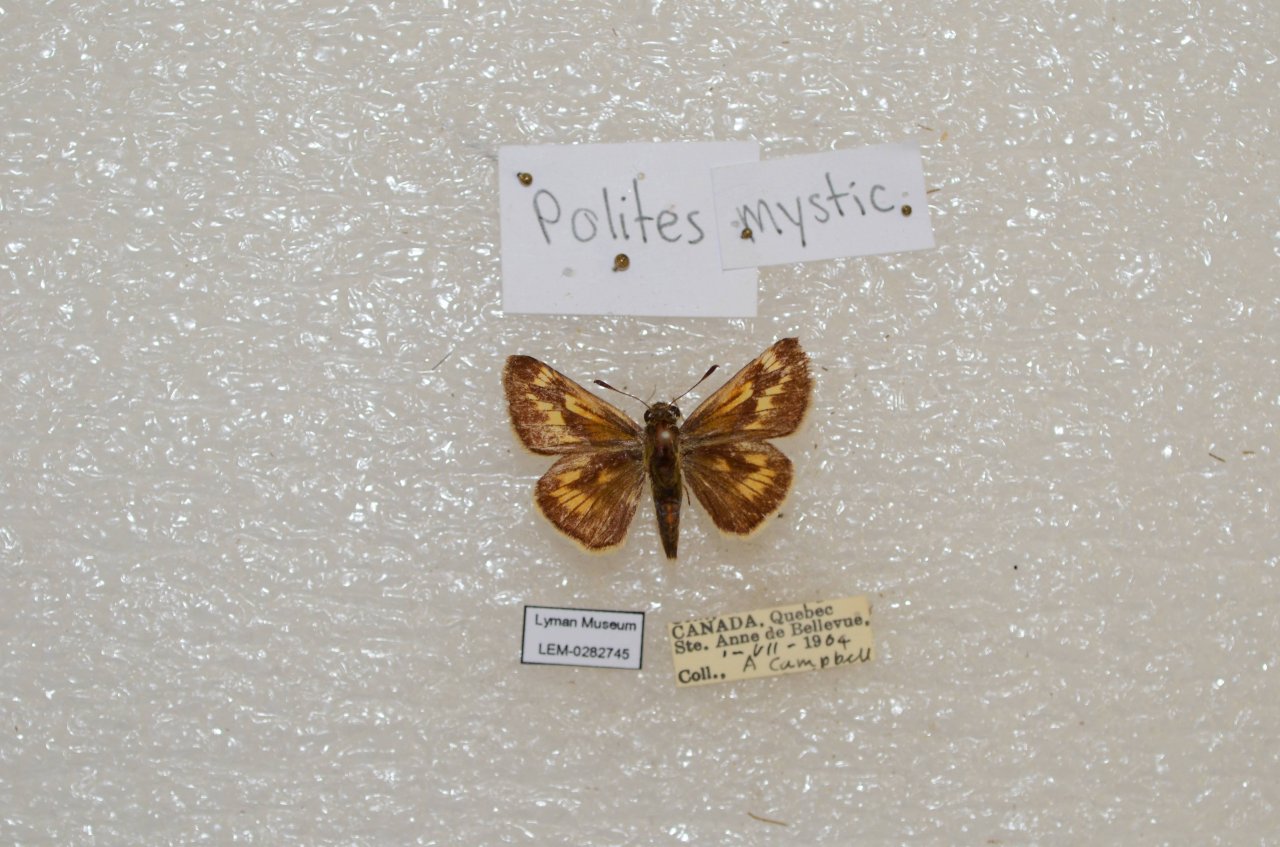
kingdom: Animalia
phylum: Arthropoda
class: Insecta
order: Lepidoptera
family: Hesperiidae
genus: Polites
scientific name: Polites
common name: Long Dash Skipper
